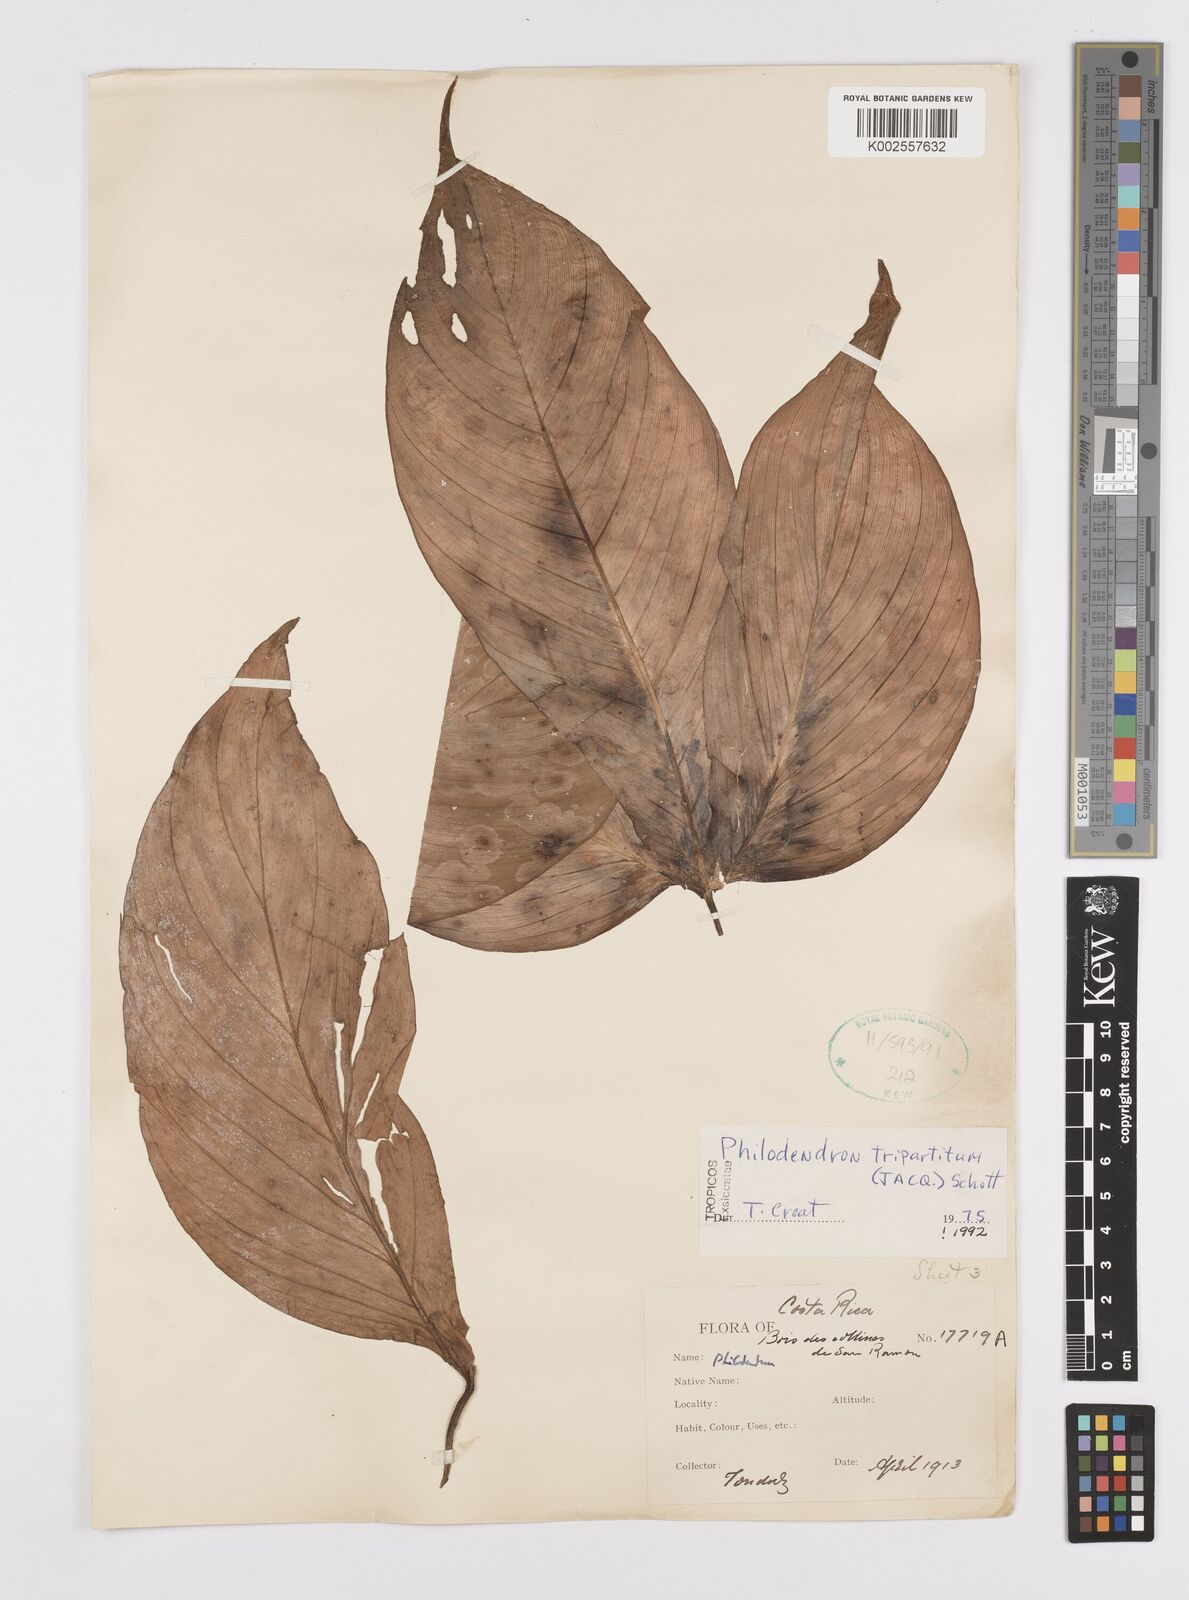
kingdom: Plantae
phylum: Tracheophyta
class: Liliopsida
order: Alismatales
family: Araceae
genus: Philodendron
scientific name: Philodendron tripartitum
